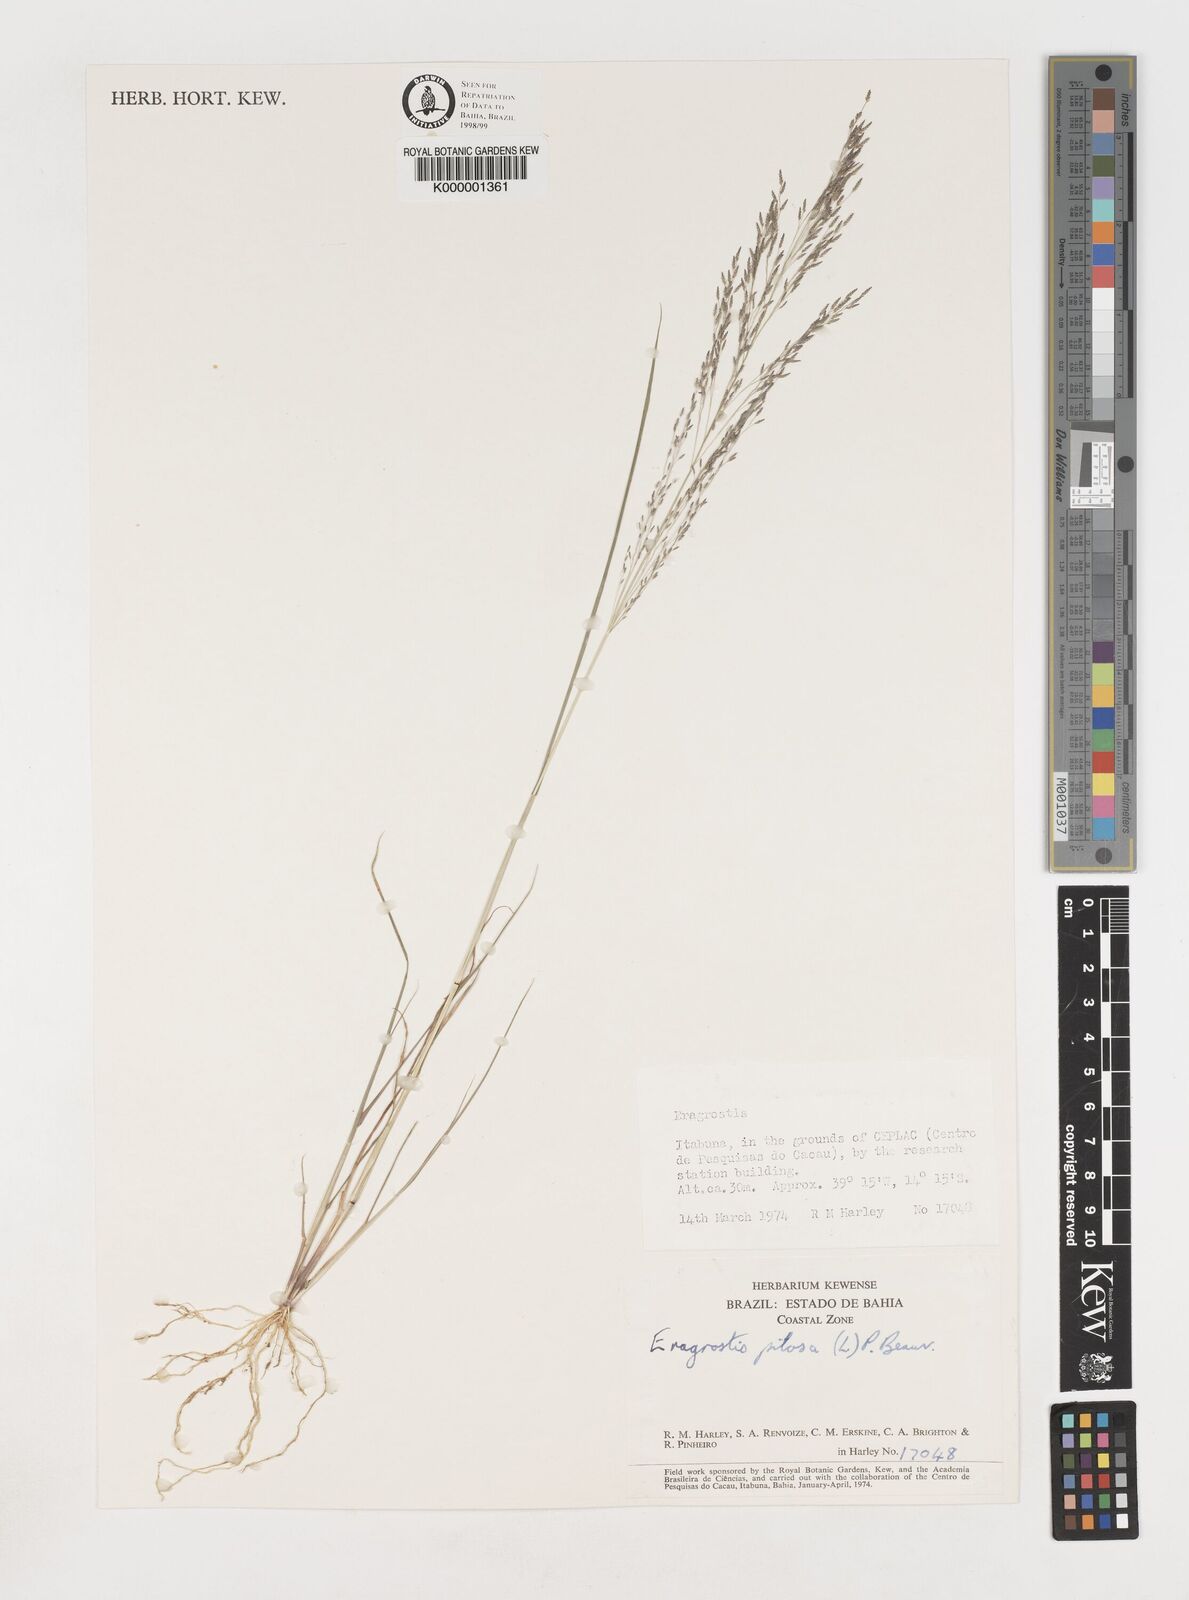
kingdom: Plantae
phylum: Tracheophyta
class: Liliopsida
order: Poales
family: Poaceae
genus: Eragrostis
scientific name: Eragrostis pilosa
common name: Indian lovegrass
